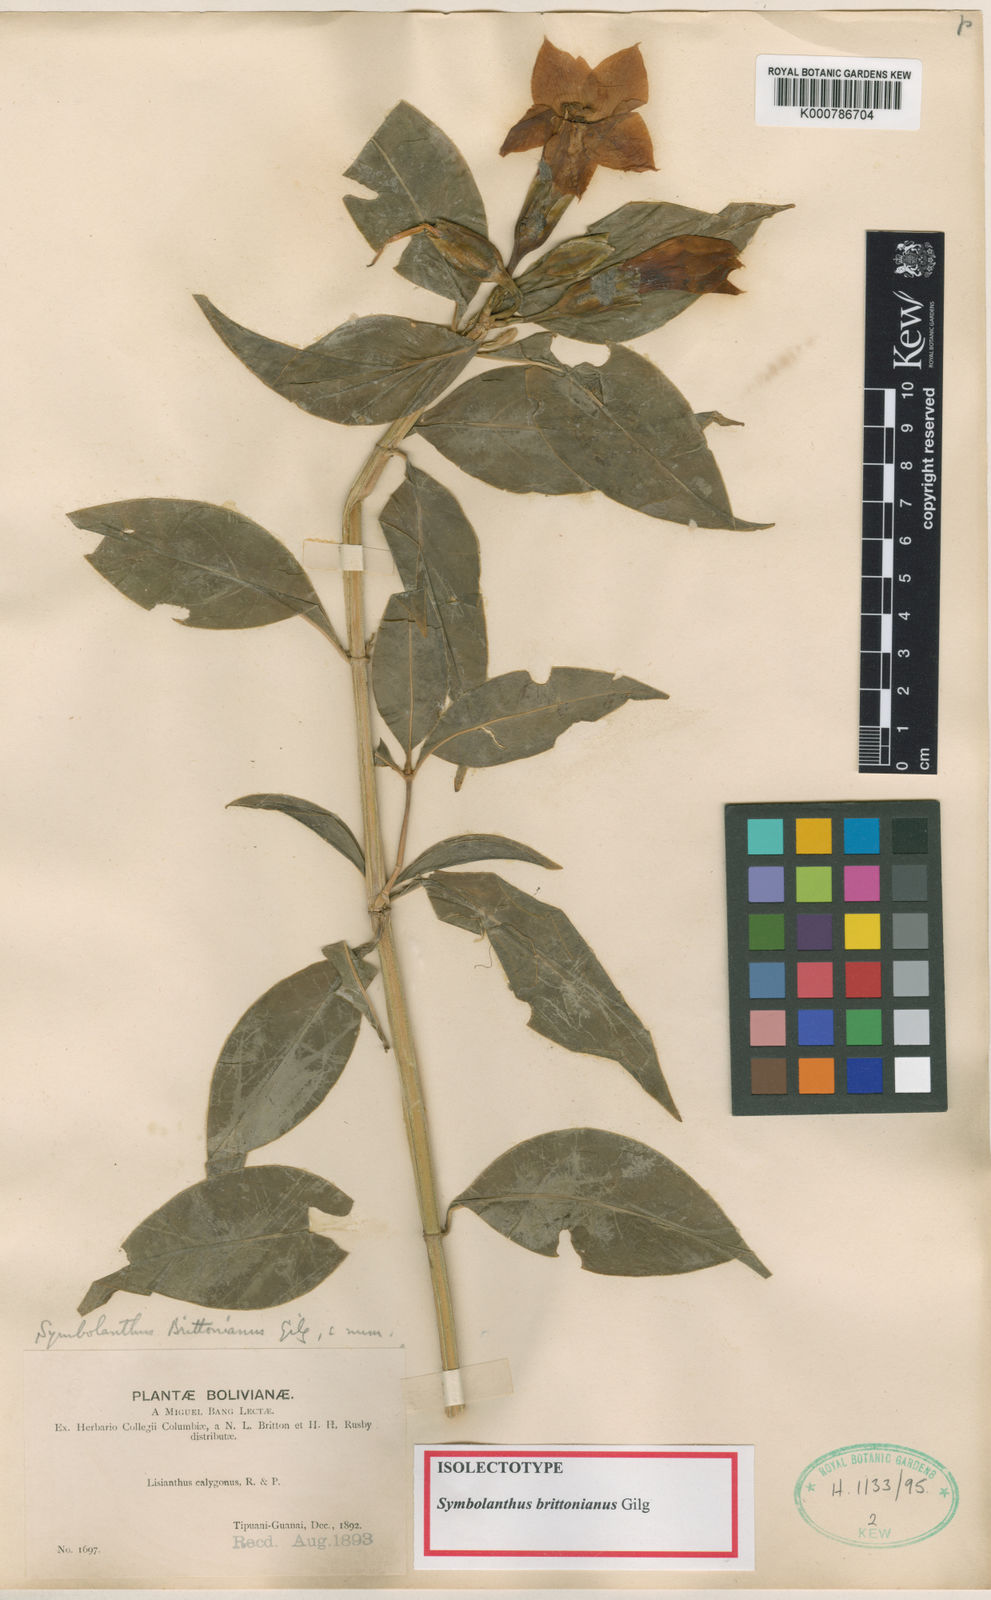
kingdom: Plantae
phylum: Tracheophyta
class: Magnoliopsida
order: Gentianales
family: Gentianaceae
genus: Symbolanthus
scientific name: Symbolanthus brittonianus
